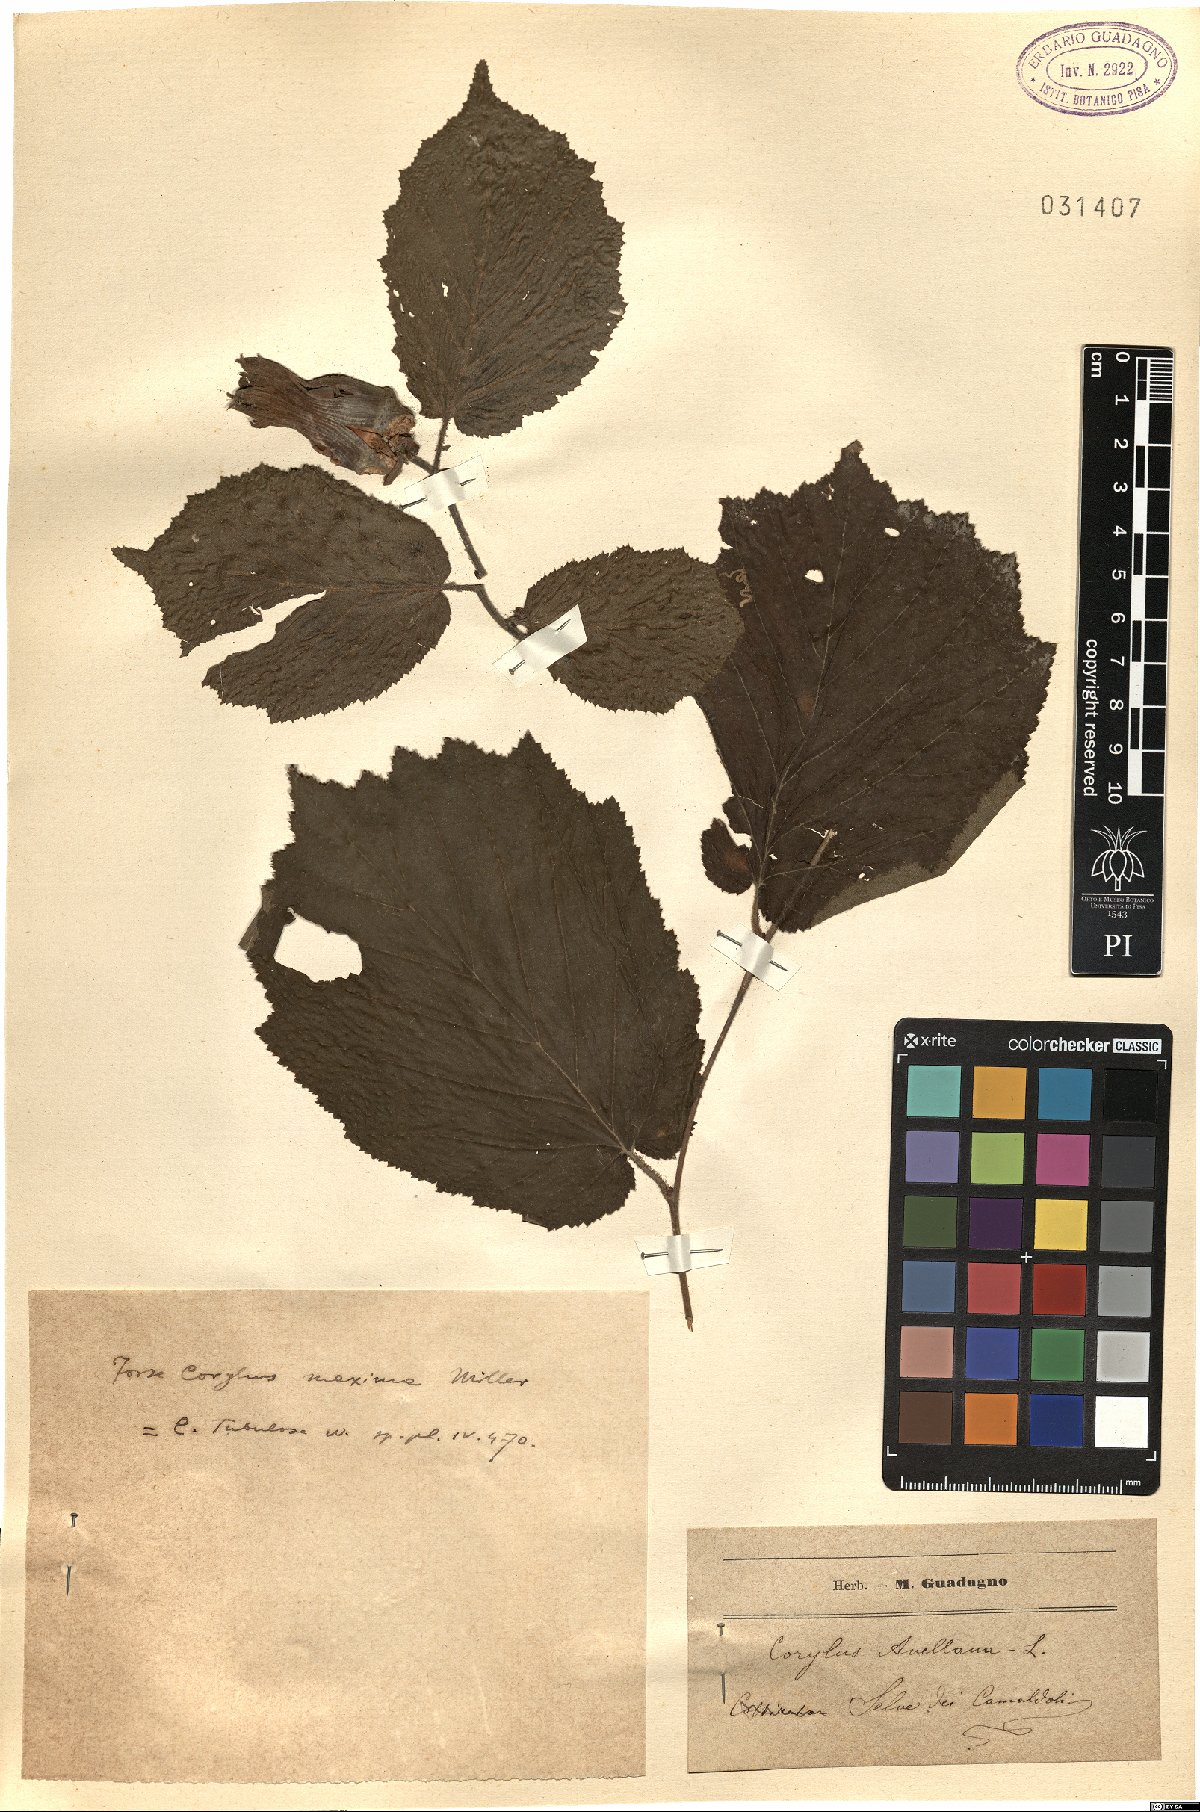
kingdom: Plantae
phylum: Tracheophyta
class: Magnoliopsida
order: Fagales
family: Betulaceae
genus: Corylus
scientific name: Corylus avellana
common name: European hazel
